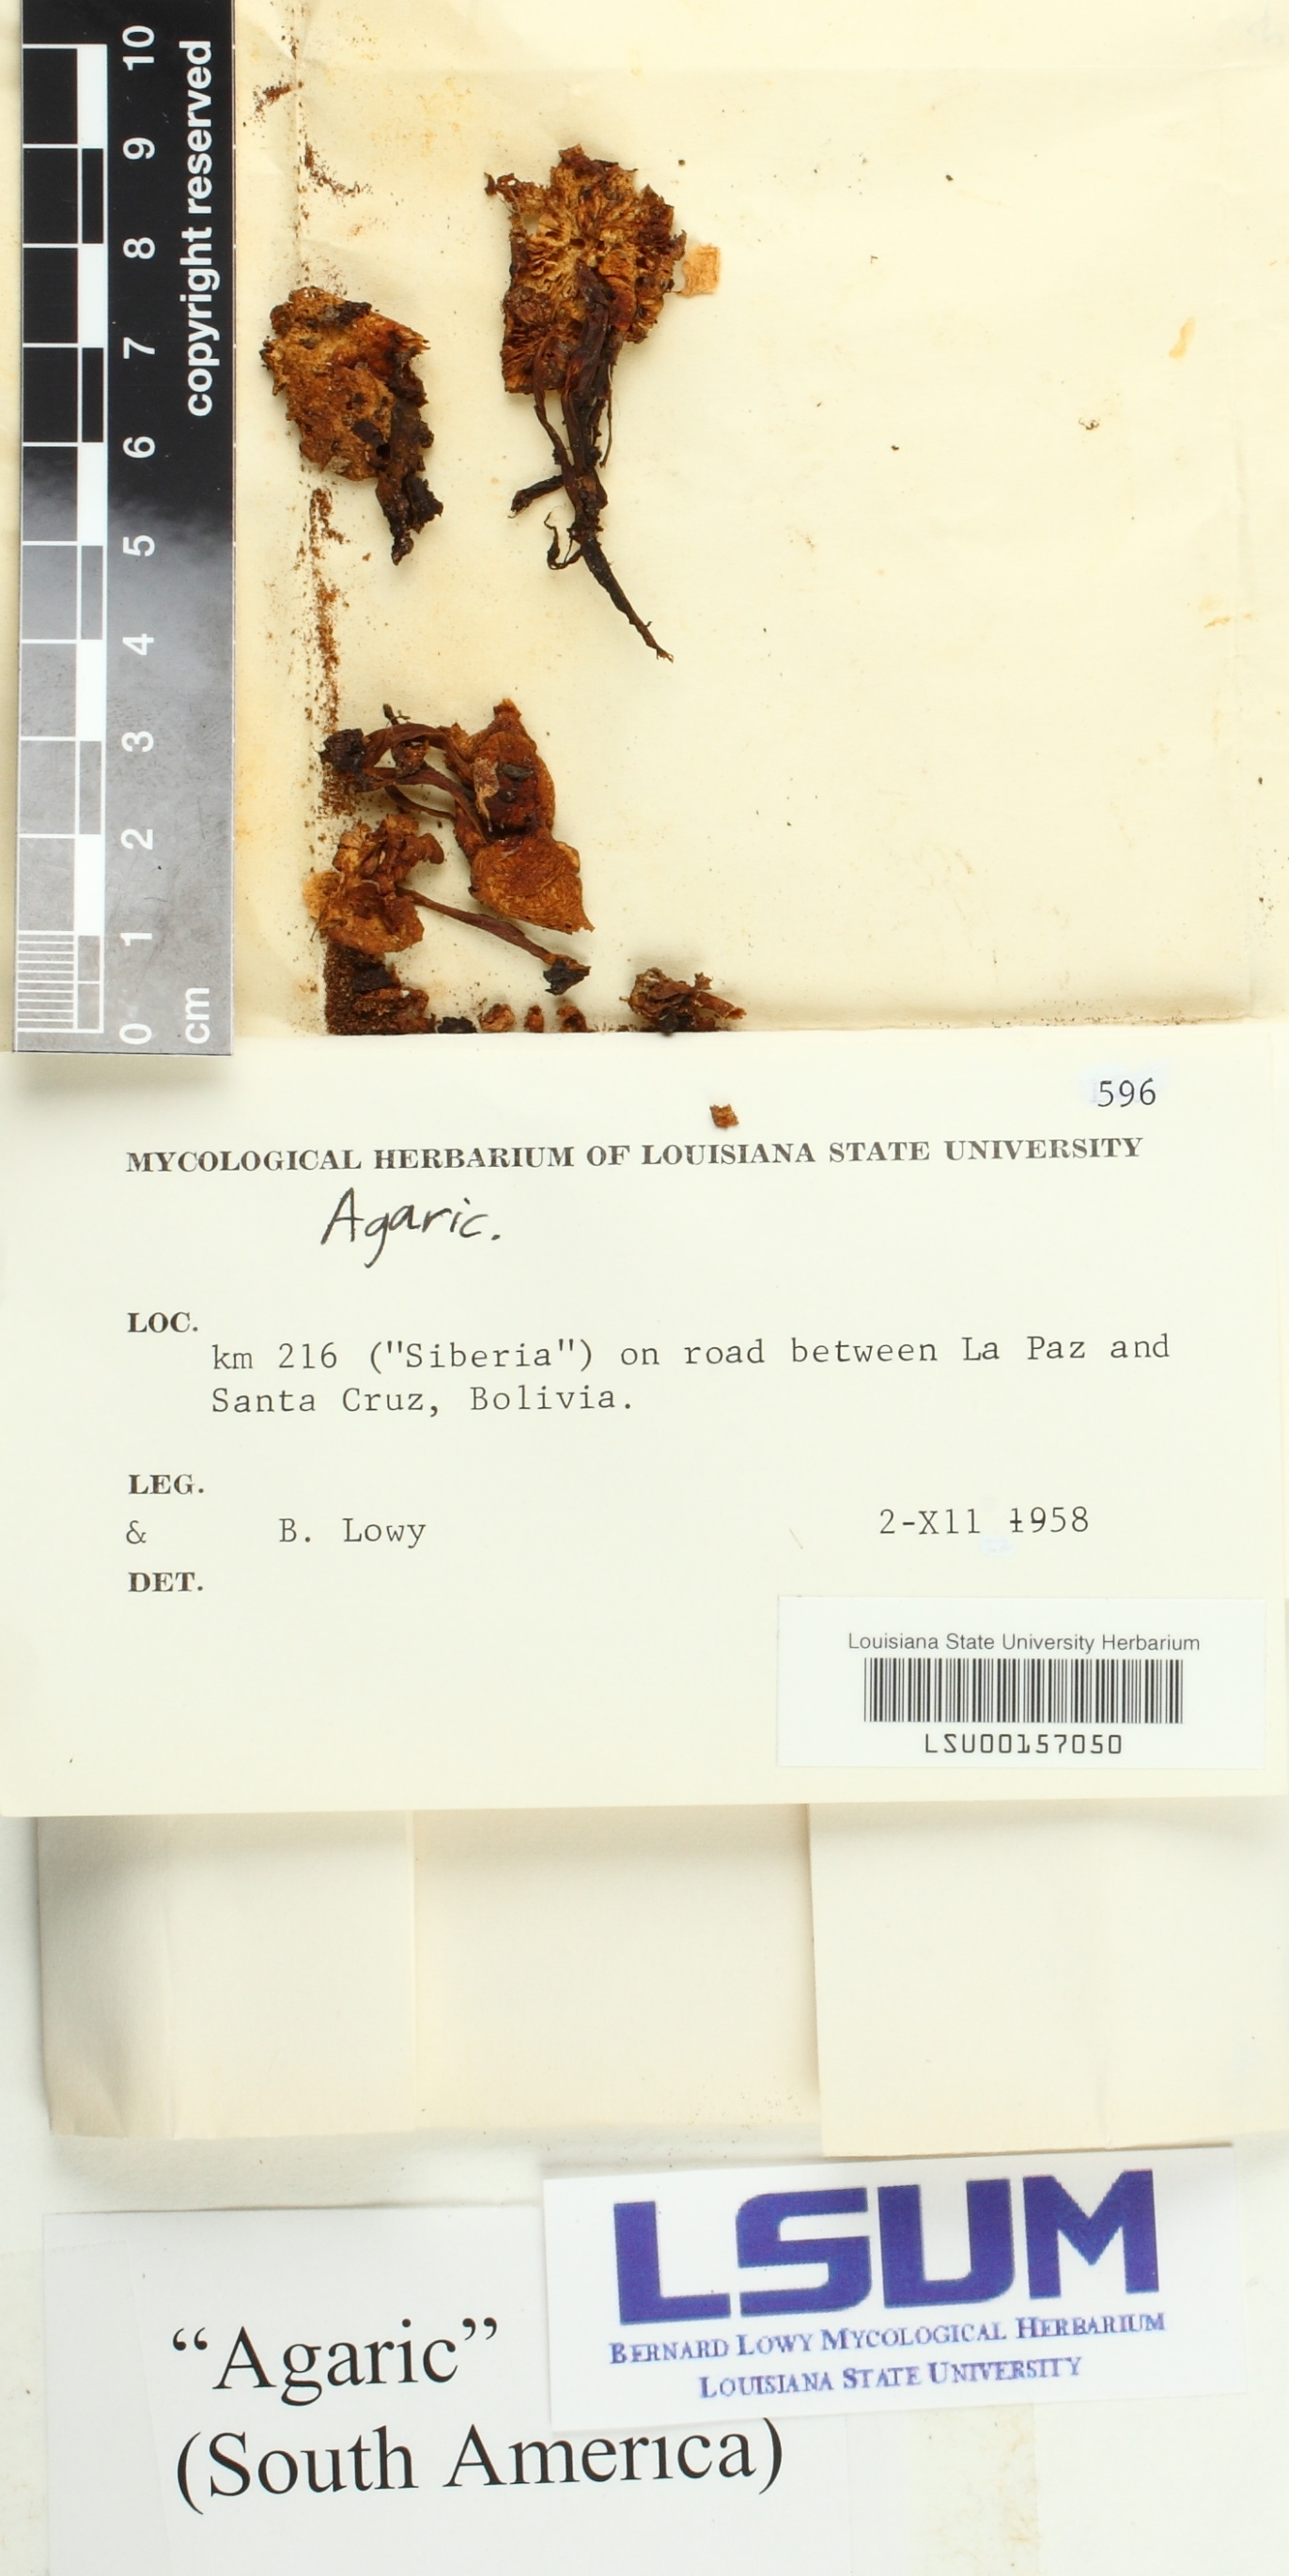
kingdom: Fungi
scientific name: Fungi
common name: Fungi
